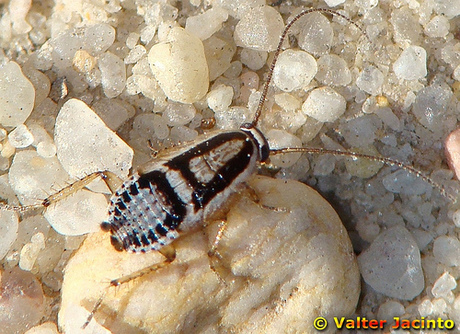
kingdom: Animalia
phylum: Arthropoda
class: Insecta
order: Blattodea
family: Ectobiidae
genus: Capraiellus
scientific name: Capraiellus panzeri
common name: Lesser cockroach
